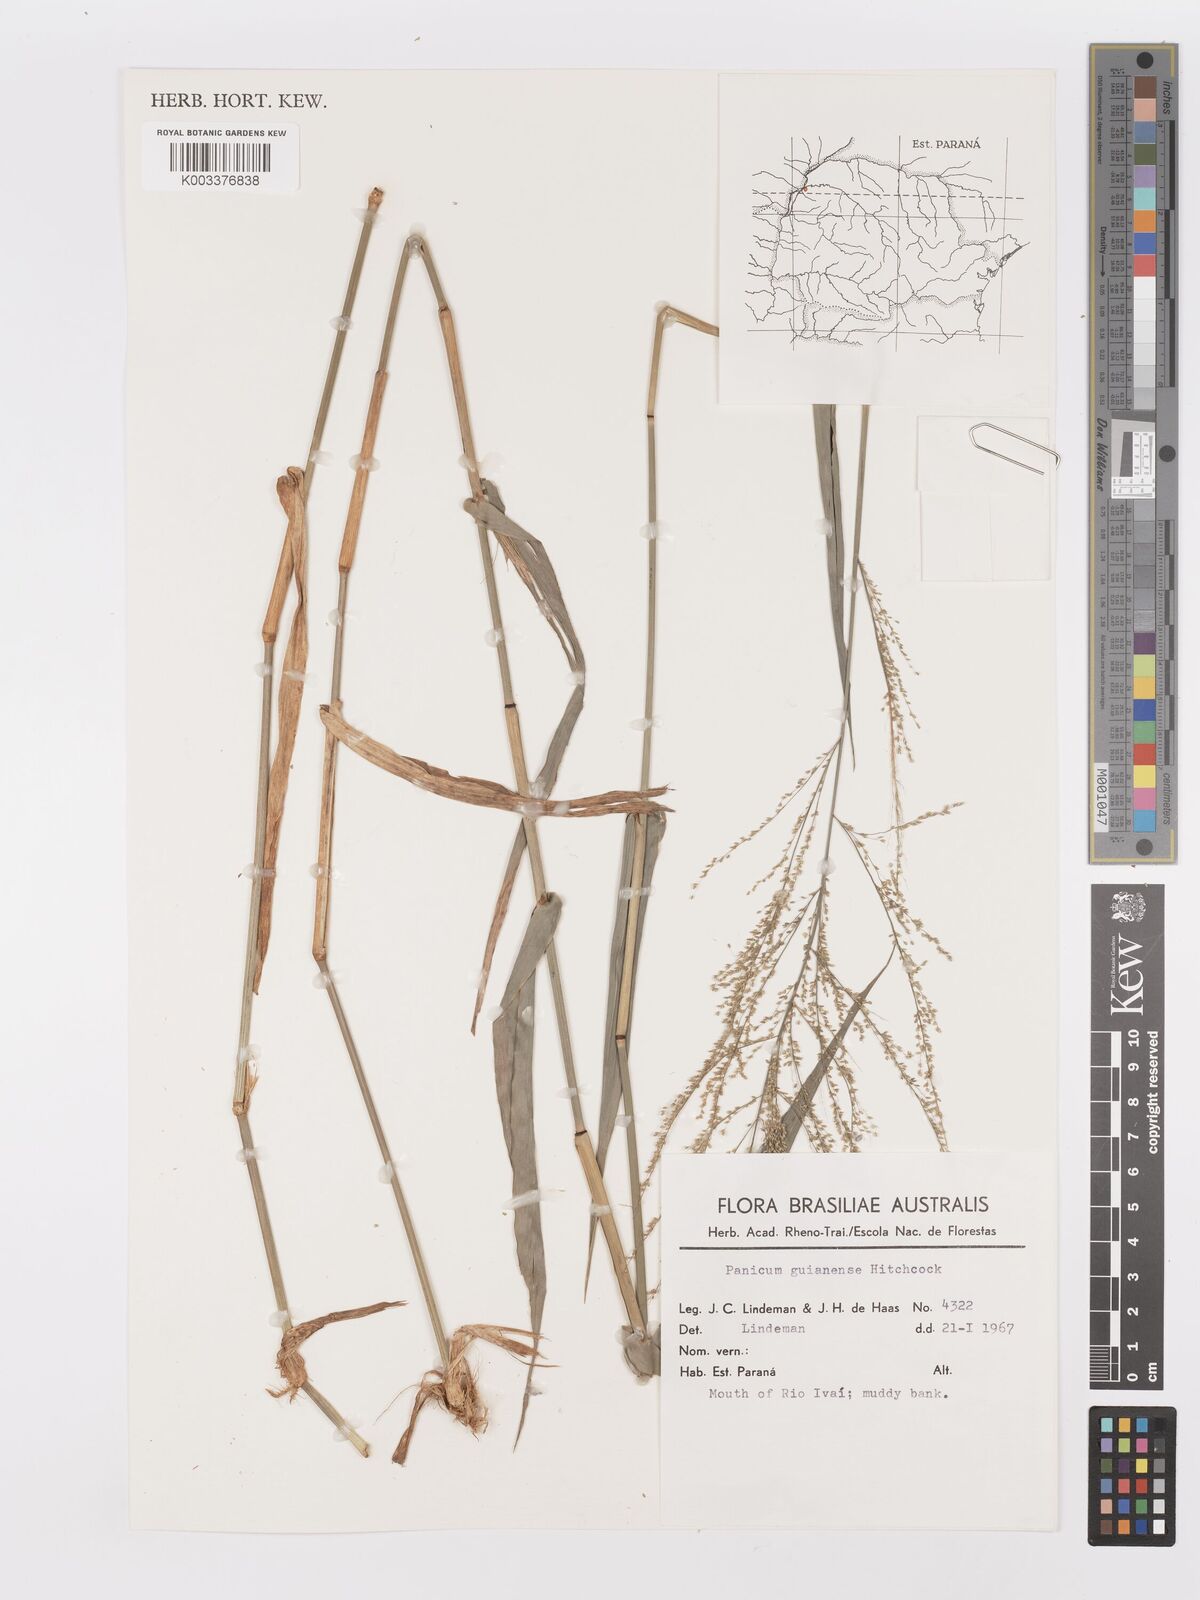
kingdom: Plantae
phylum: Tracheophyta
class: Liliopsida
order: Poales
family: Poaceae
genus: Rugoloa
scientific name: Rugoloa hylaeica
